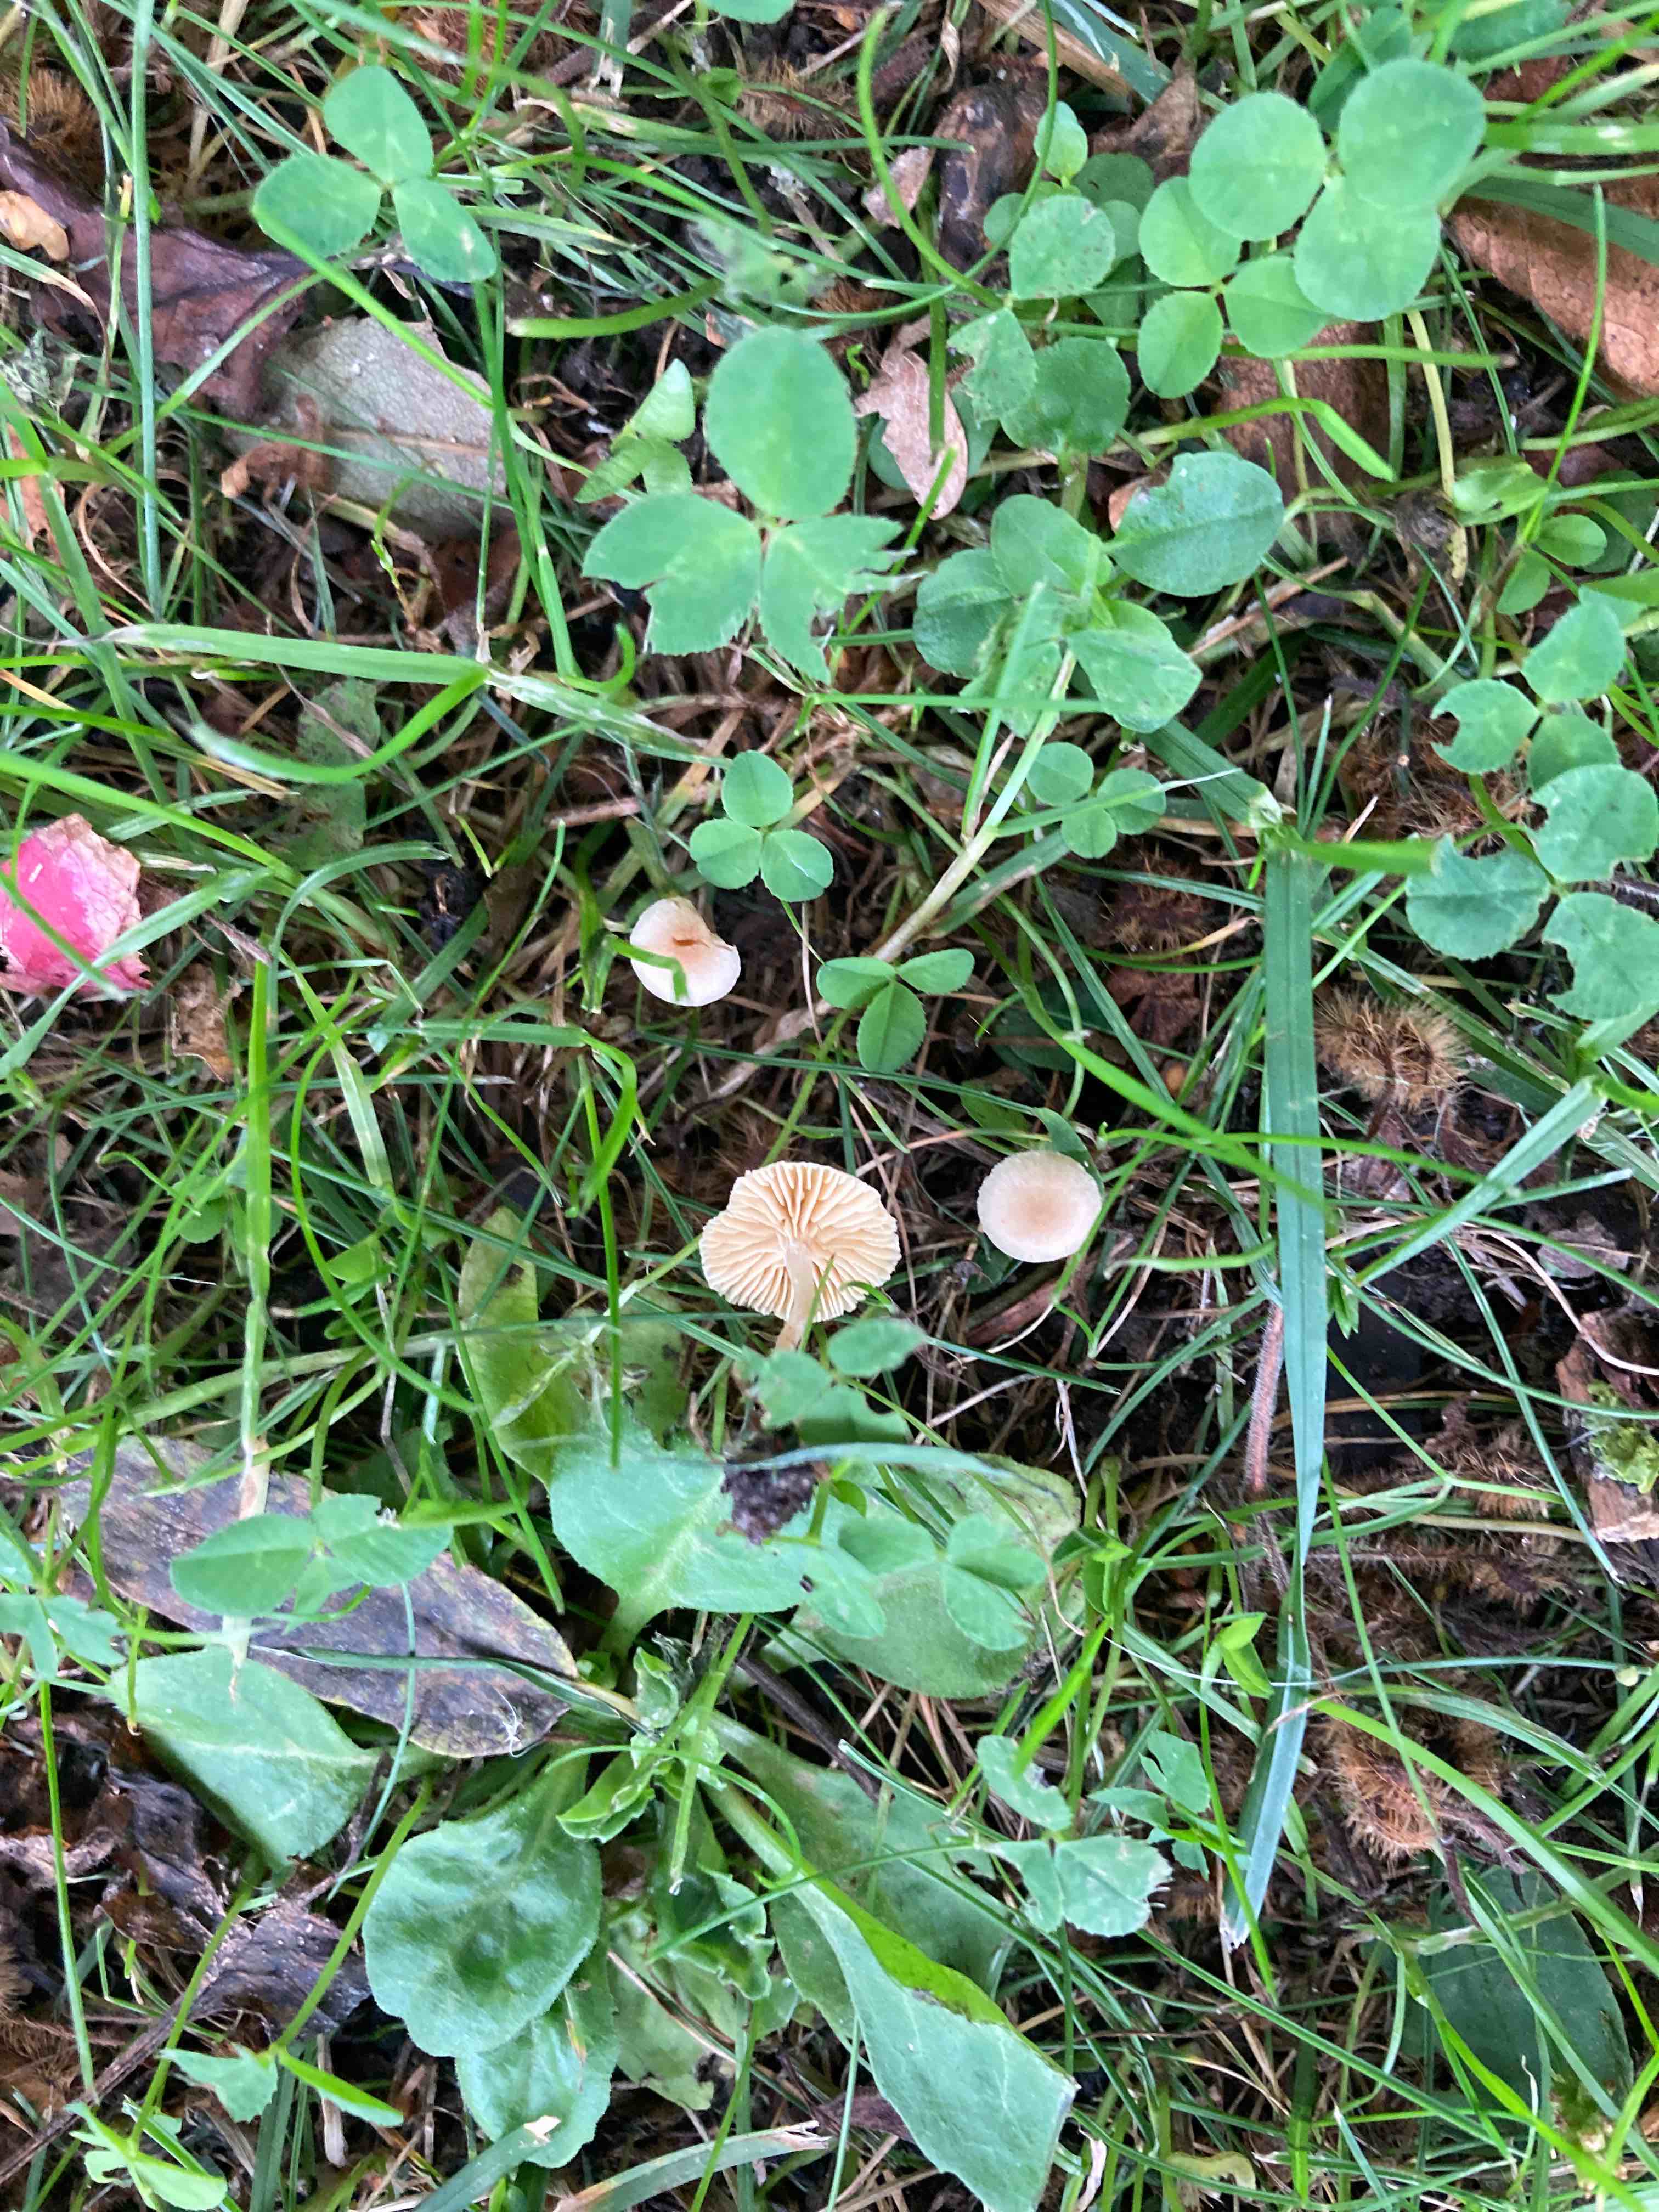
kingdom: Fungi
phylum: Basidiomycota
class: Agaricomycetes
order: Agaricales
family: Tubariaceae
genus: Tubaria
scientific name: Tubaria dispersa
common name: tjørne-fnughat
